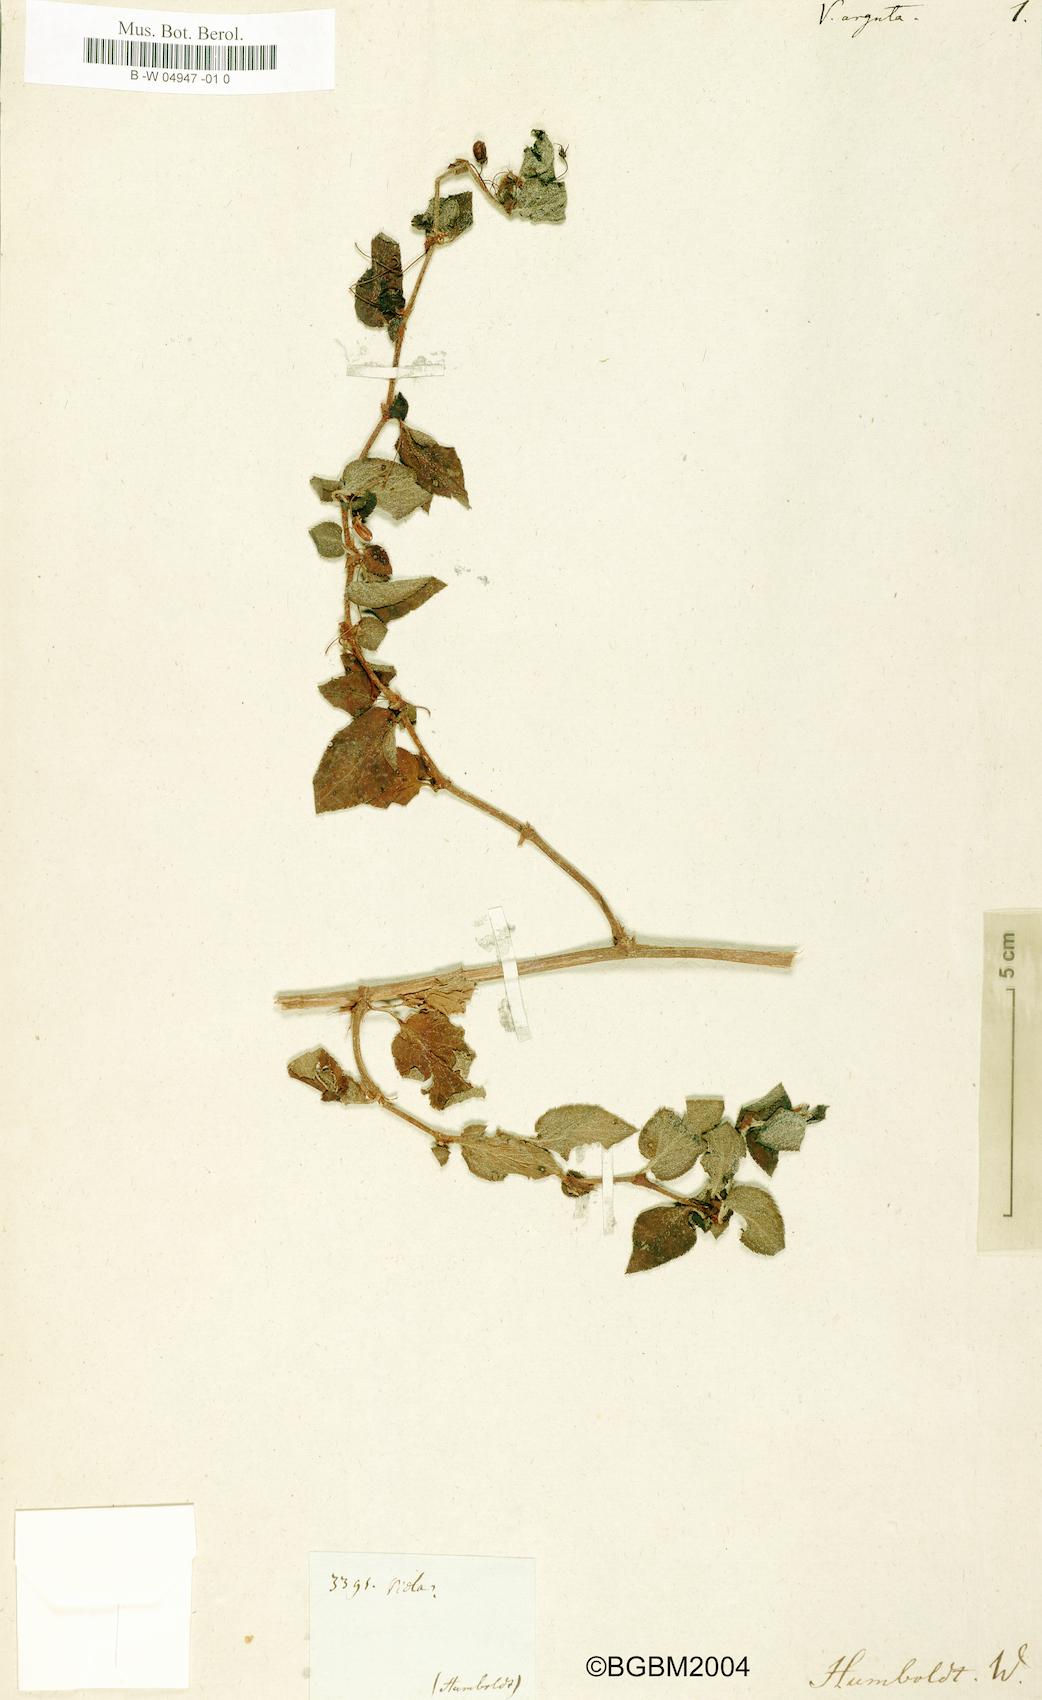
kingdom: Plantae
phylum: Tracheophyta
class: Magnoliopsida
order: Malpighiales
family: Violaceae
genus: Viola
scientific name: Viola arguta
